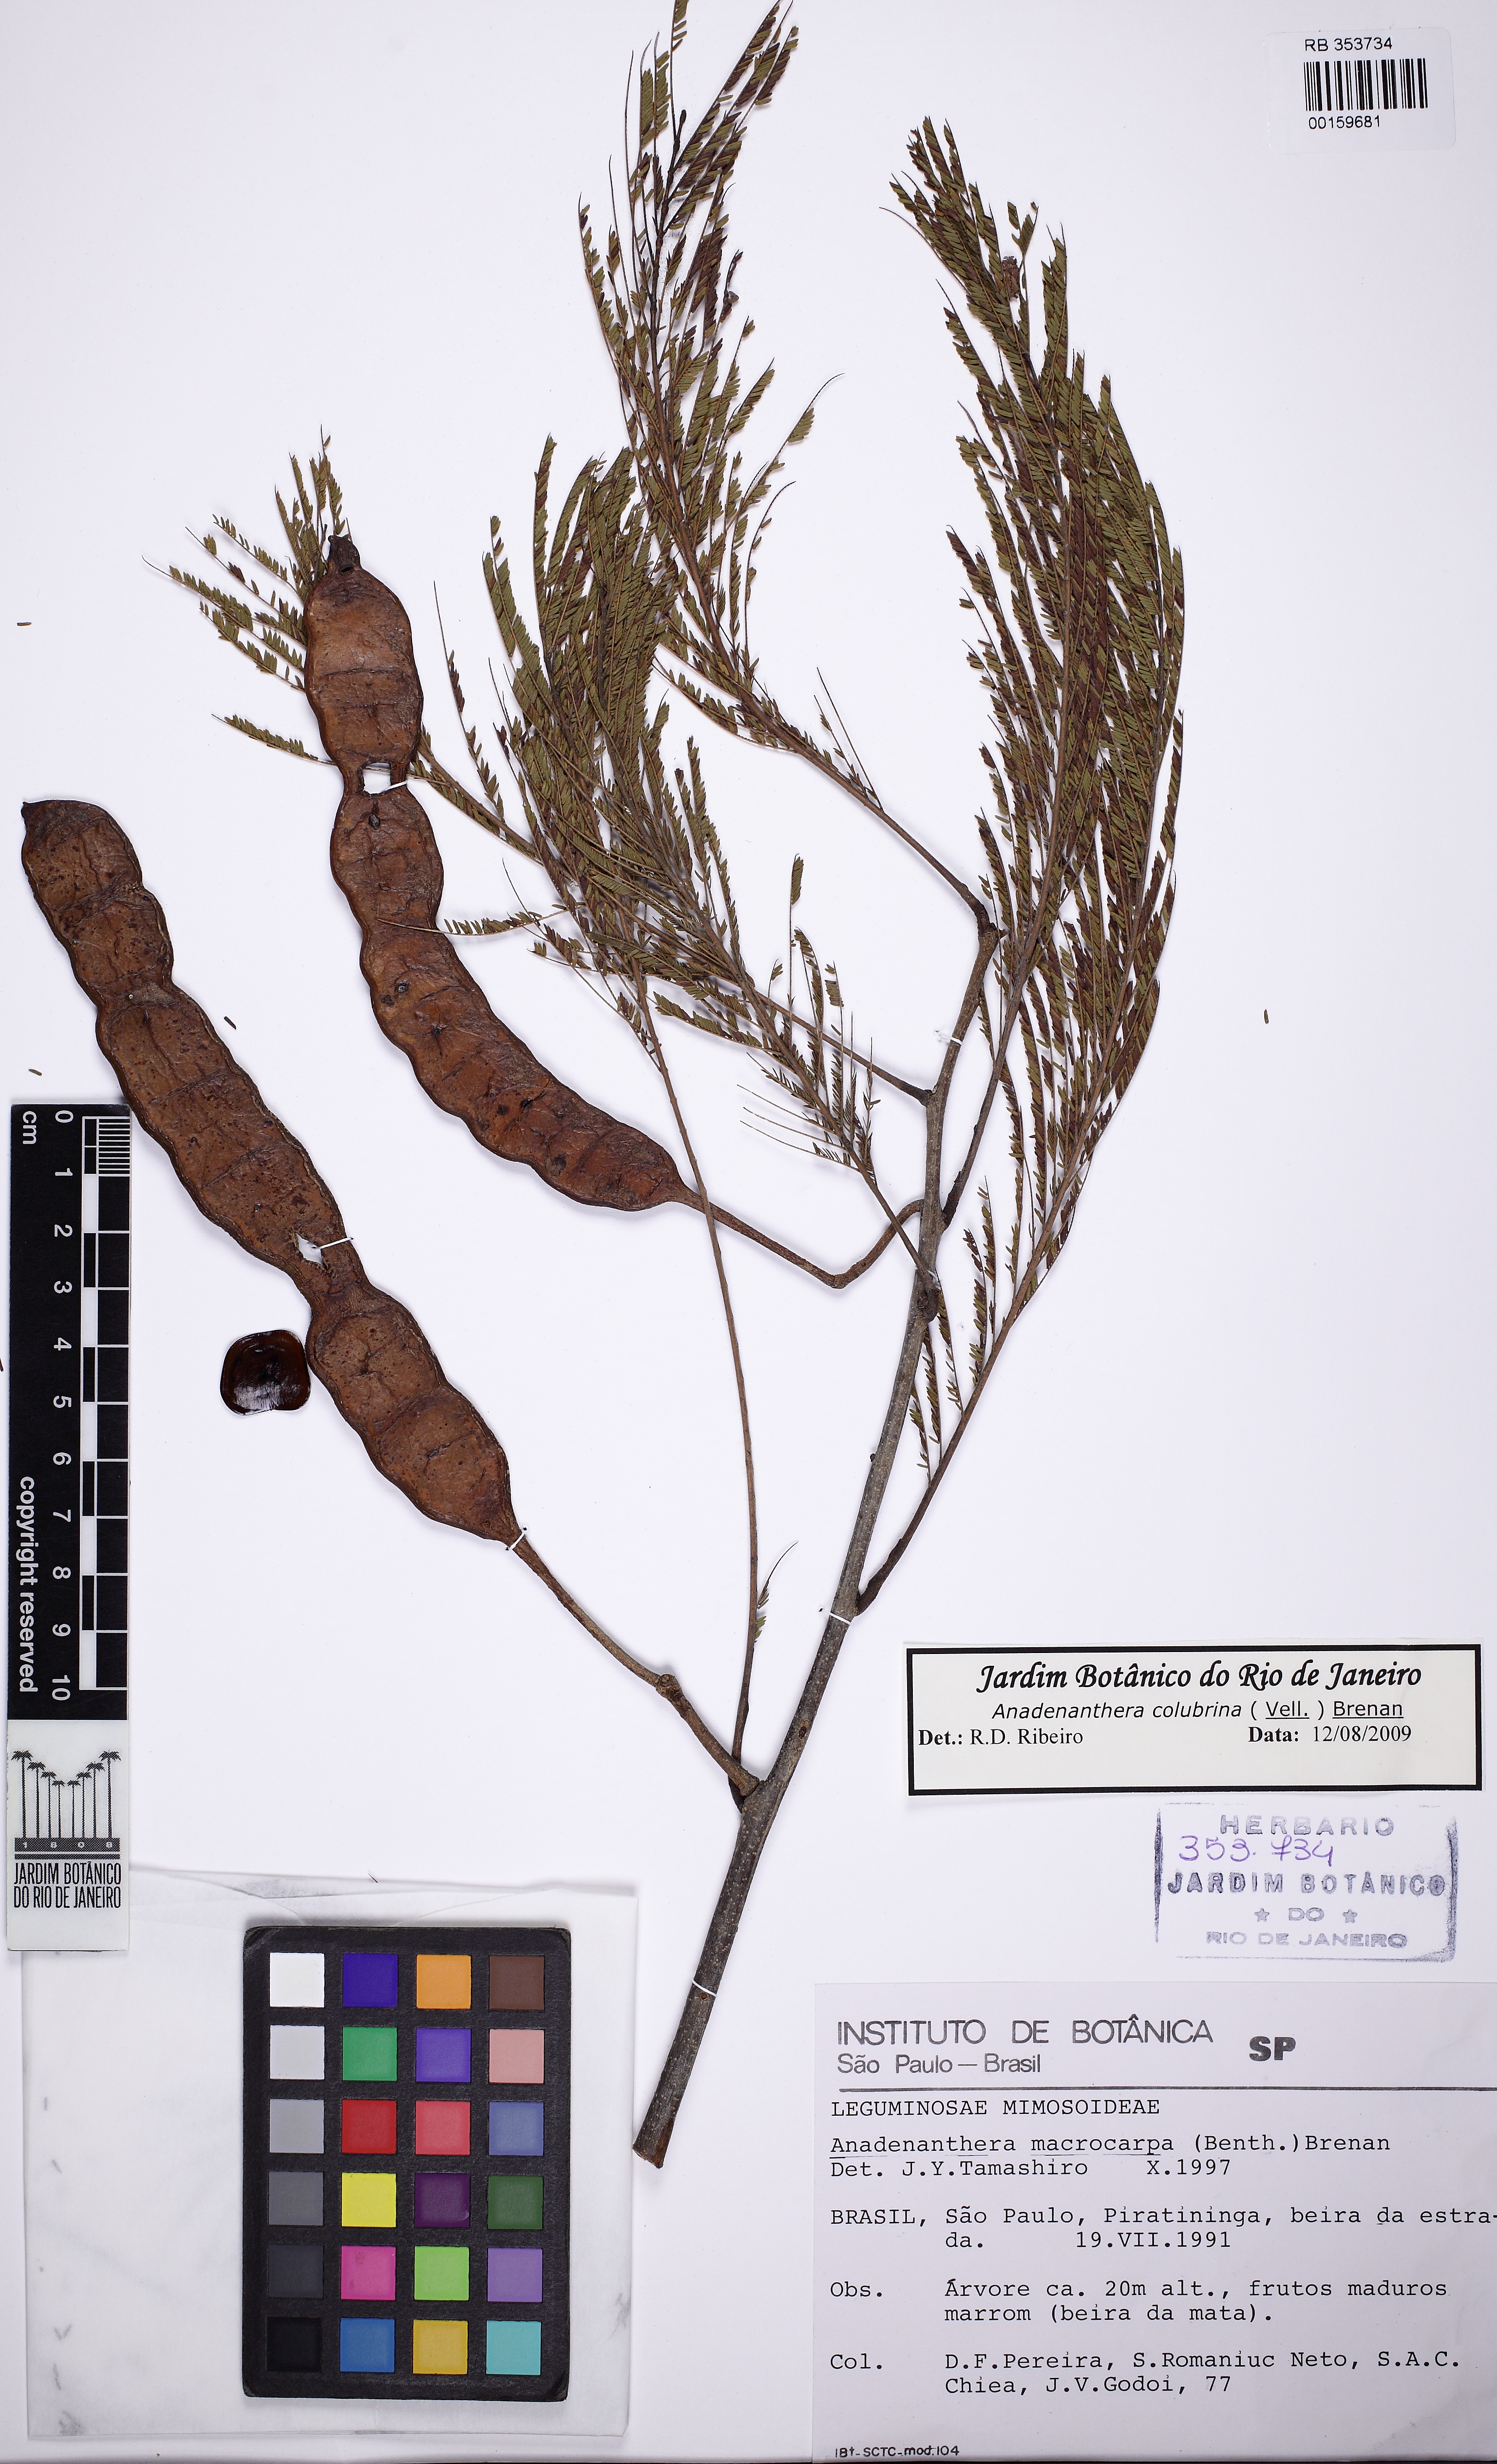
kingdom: Plantae
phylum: Tracheophyta
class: Magnoliopsida
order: Fabales
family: Fabaceae
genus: Anadenanthera
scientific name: Anadenanthera colubrina
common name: Curupay
